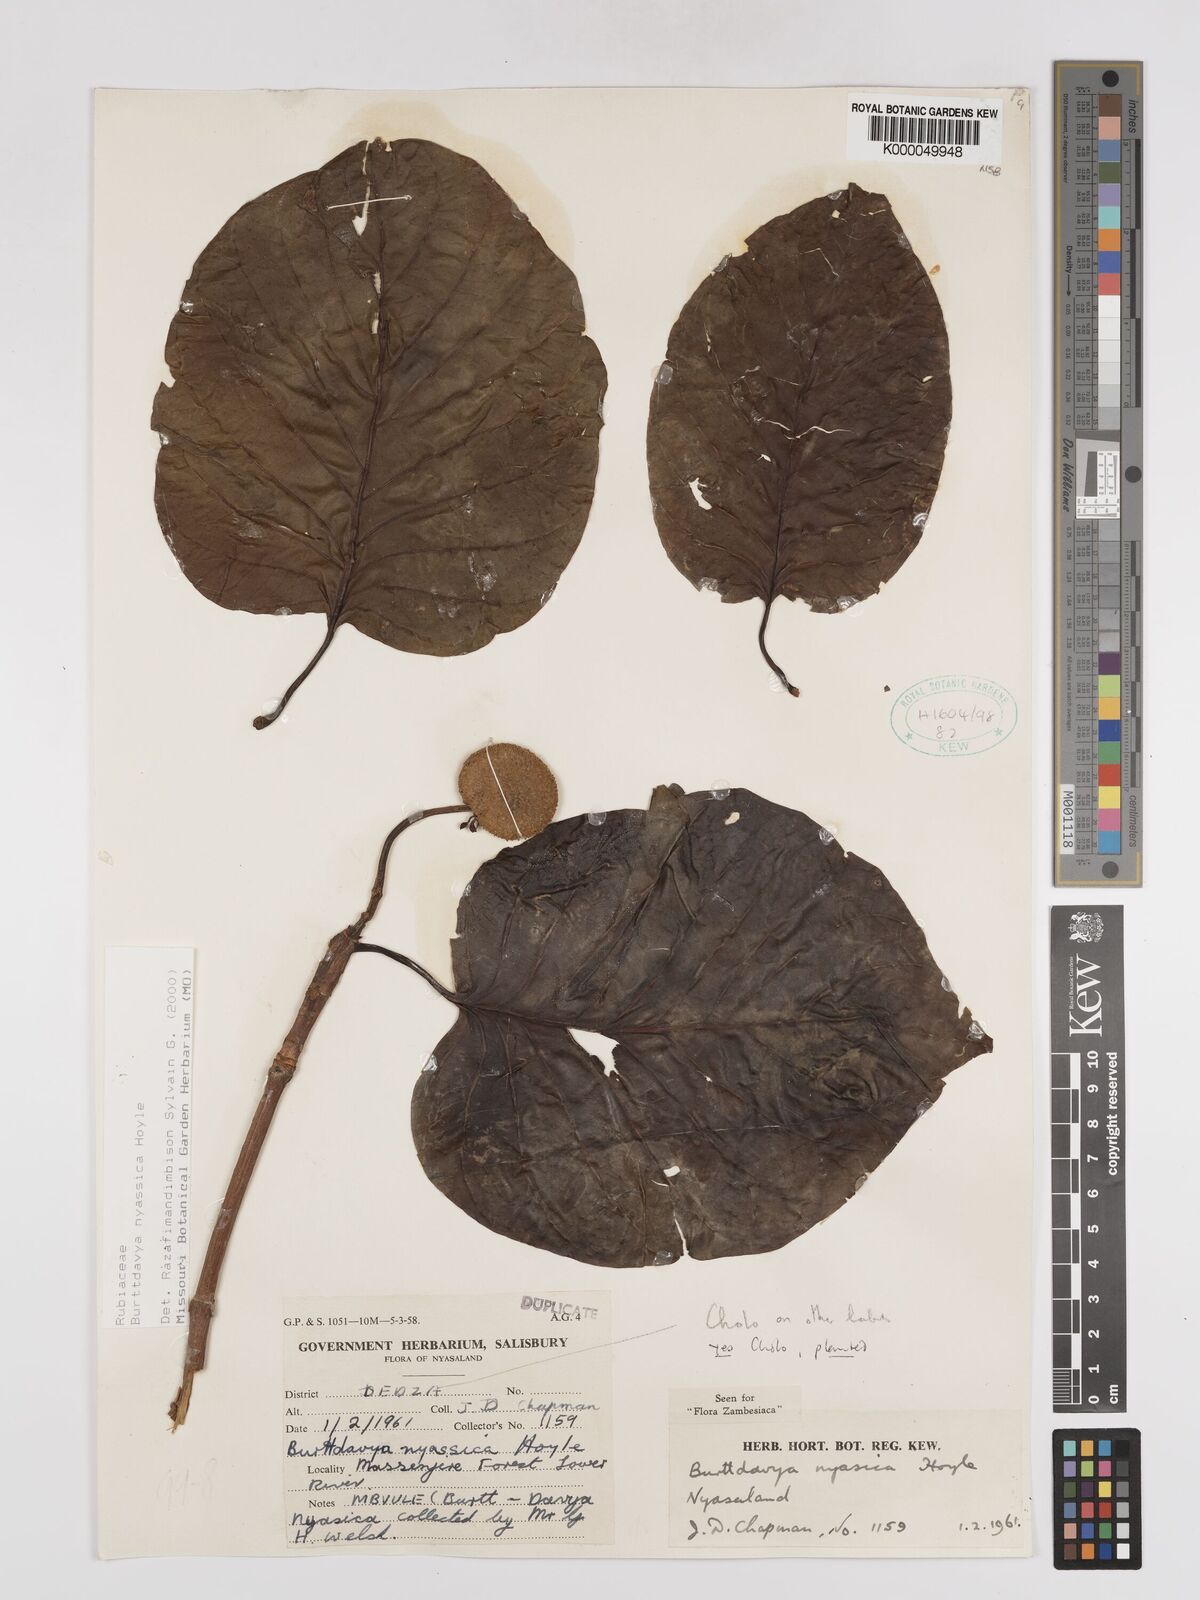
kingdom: Plantae
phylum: Tracheophyta
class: Magnoliopsida
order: Gentianales
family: Rubiaceae
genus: Nauclea
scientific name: Nauclea
